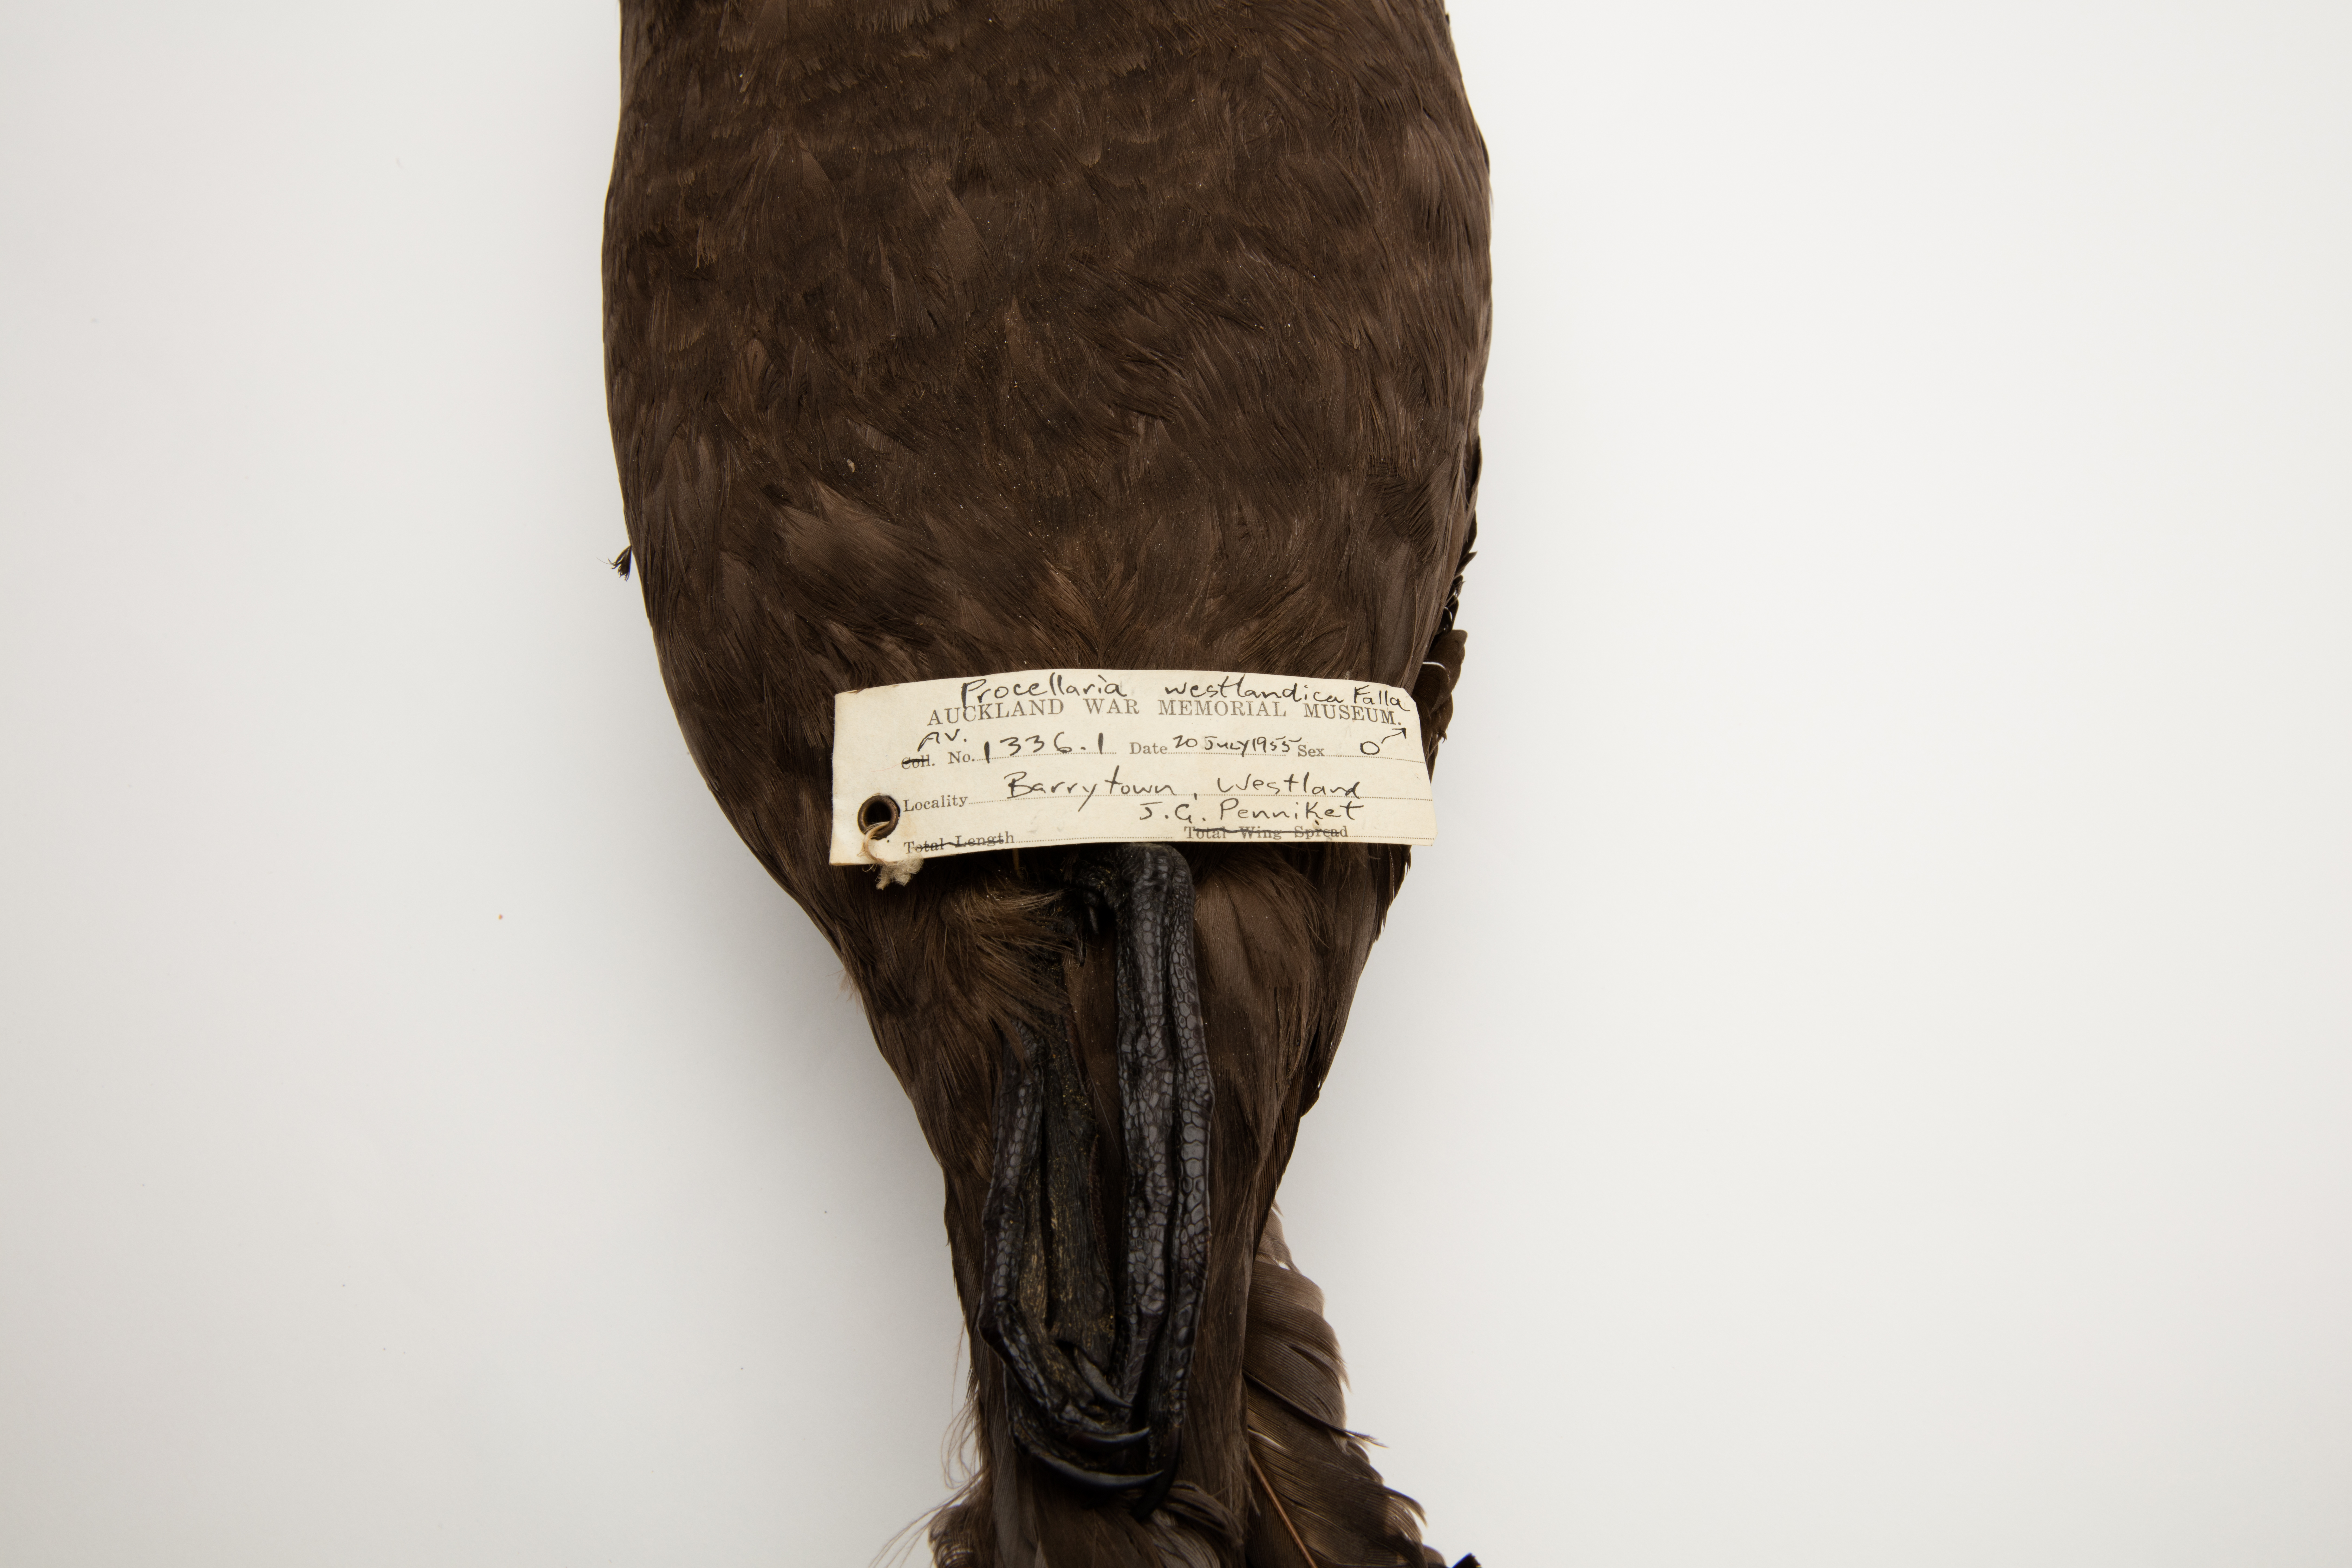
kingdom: Animalia
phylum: Chordata
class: Aves
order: Procellariiformes
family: Procellariidae
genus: Procellaria
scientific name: Procellaria westlandica
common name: Westland petrel
